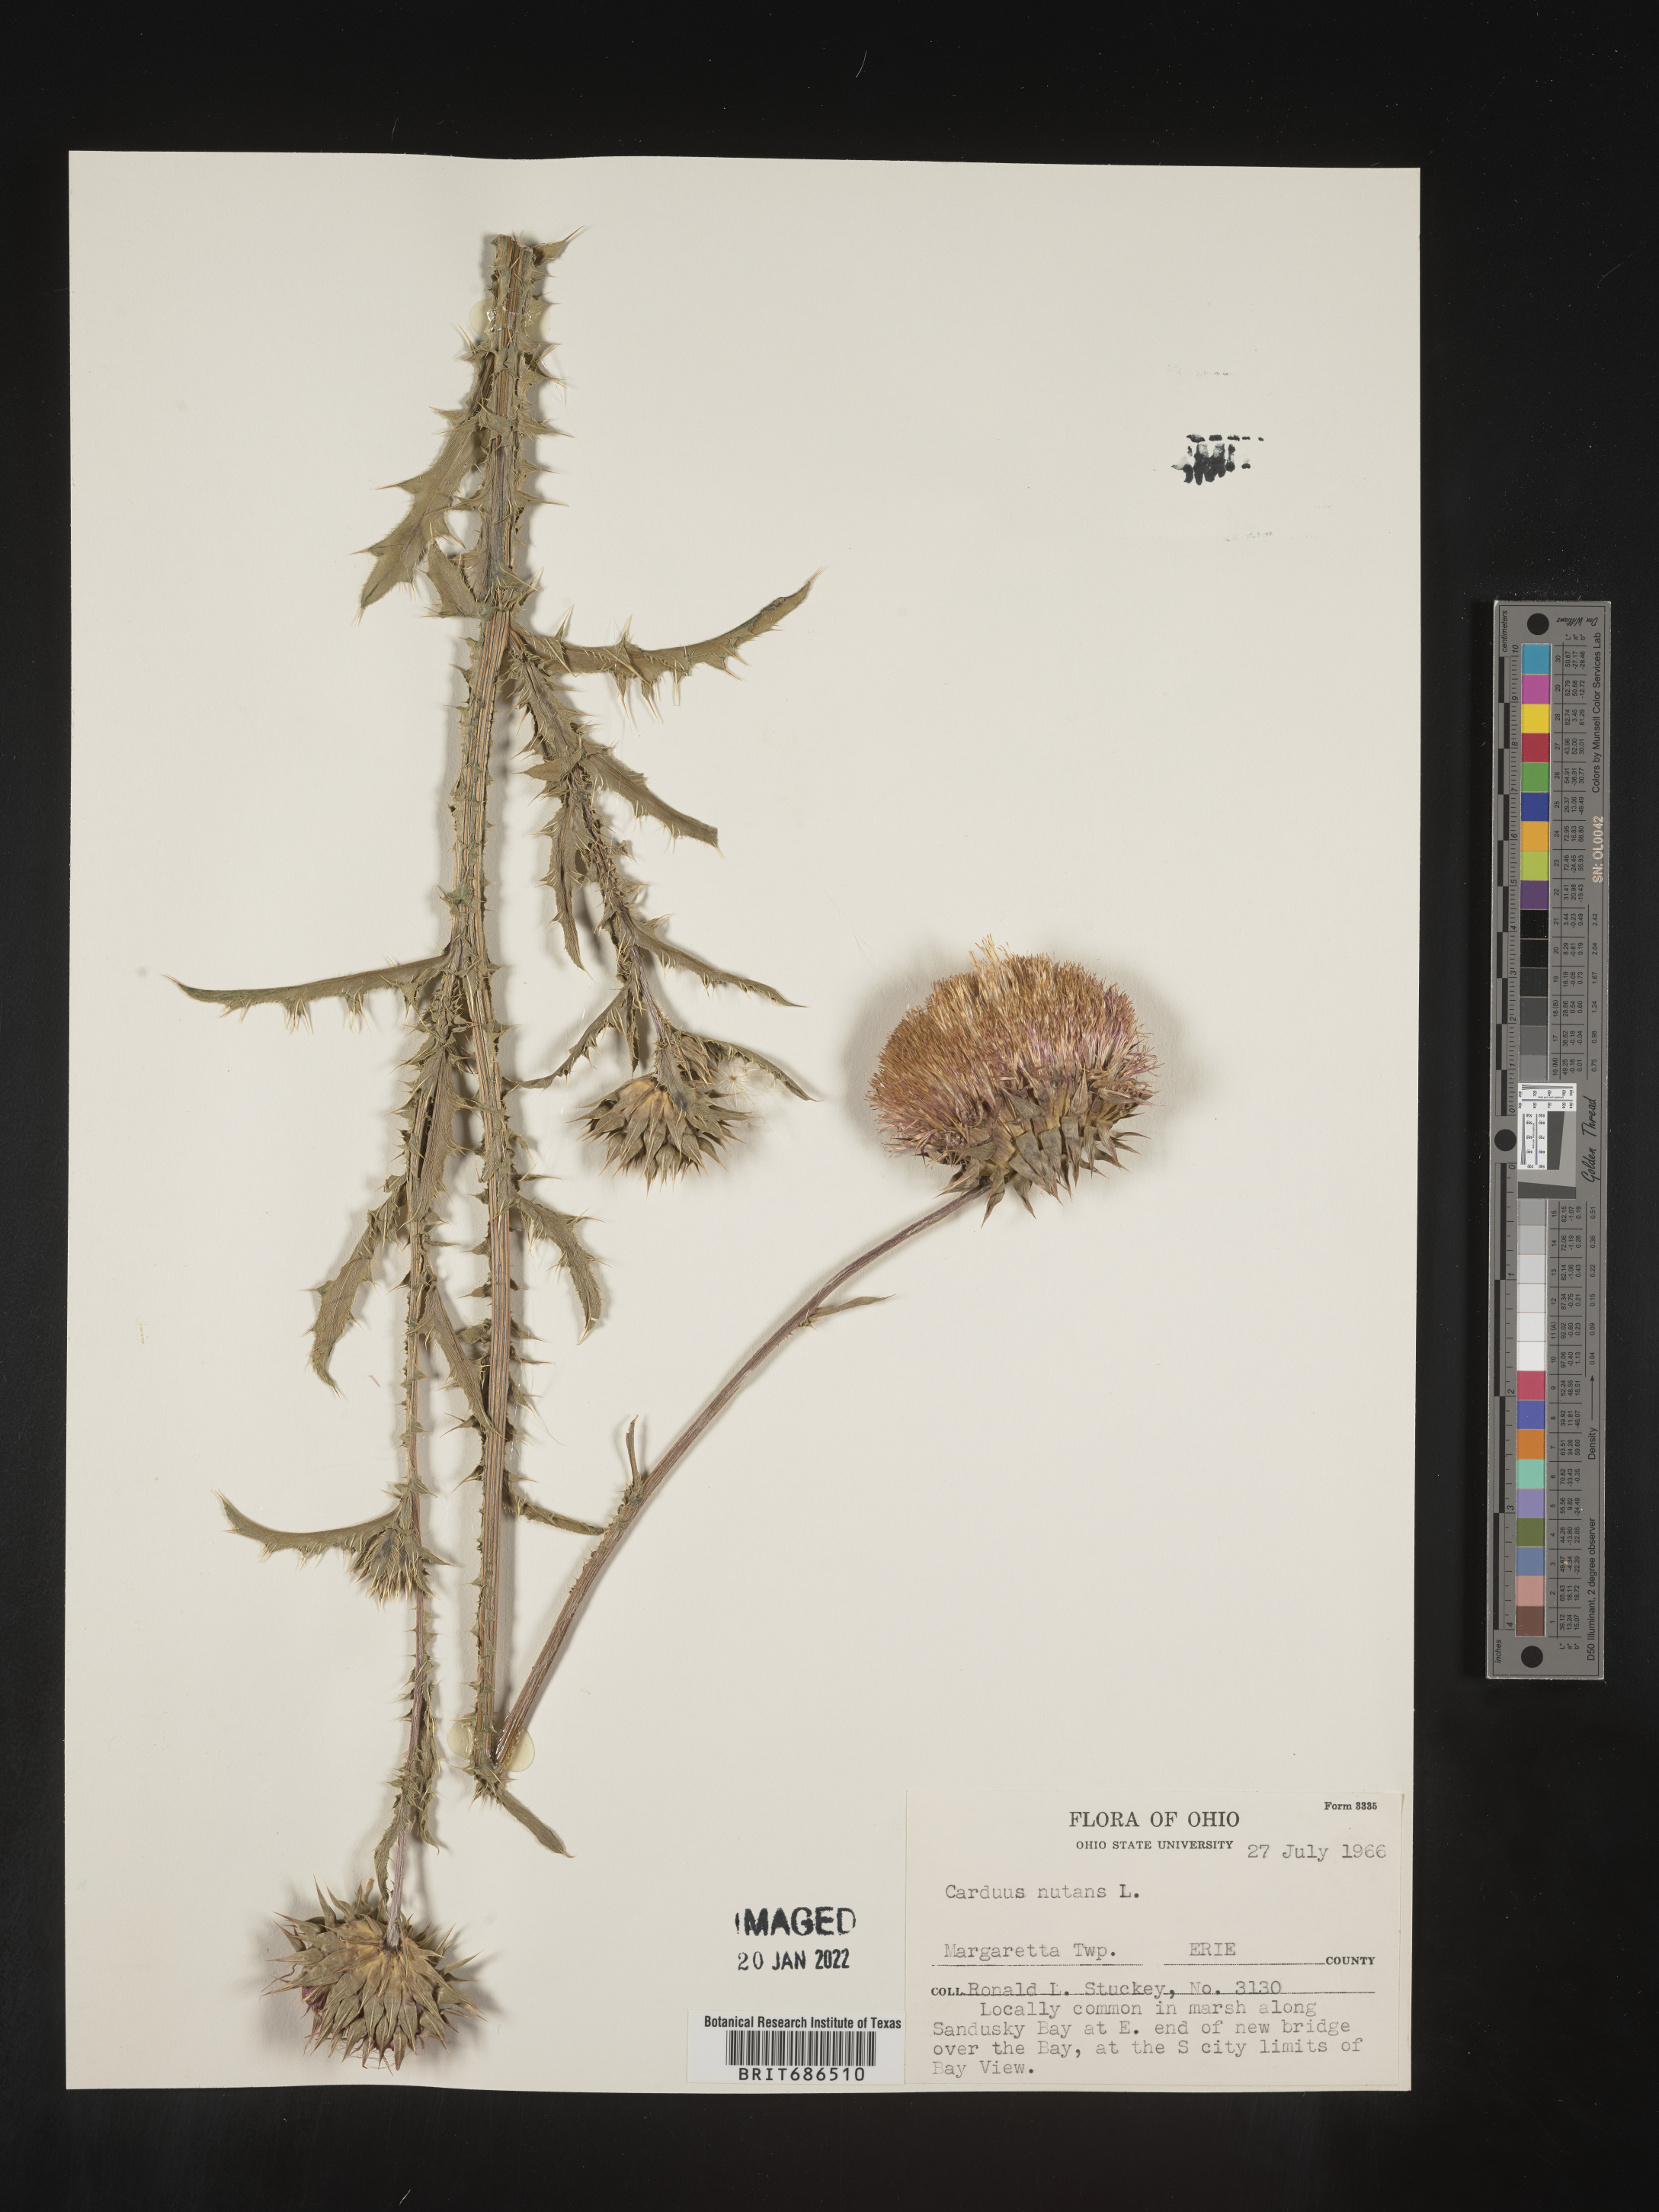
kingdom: Plantae
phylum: Tracheophyta
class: Magnoliopsida
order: Asterales
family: Asteraceae
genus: Carduus
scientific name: Carduus nutans
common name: Musk thistle
